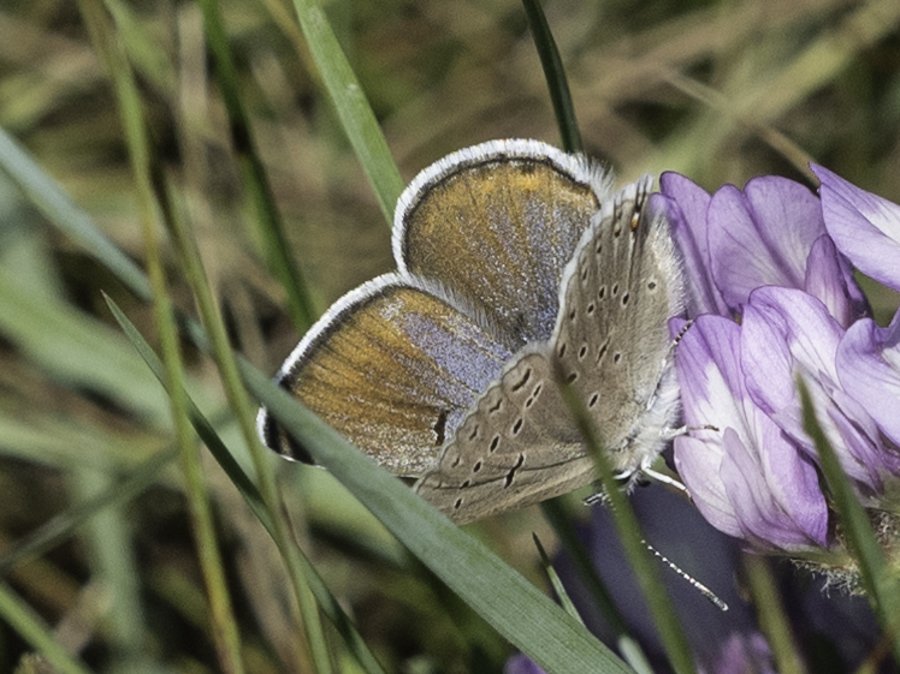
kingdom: Animalia
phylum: Arthropoda
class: Insecta
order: Lepidoptera
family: Lycaenidae
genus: Plebejus
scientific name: Plebejus saepiolus
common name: Greenish Blue
